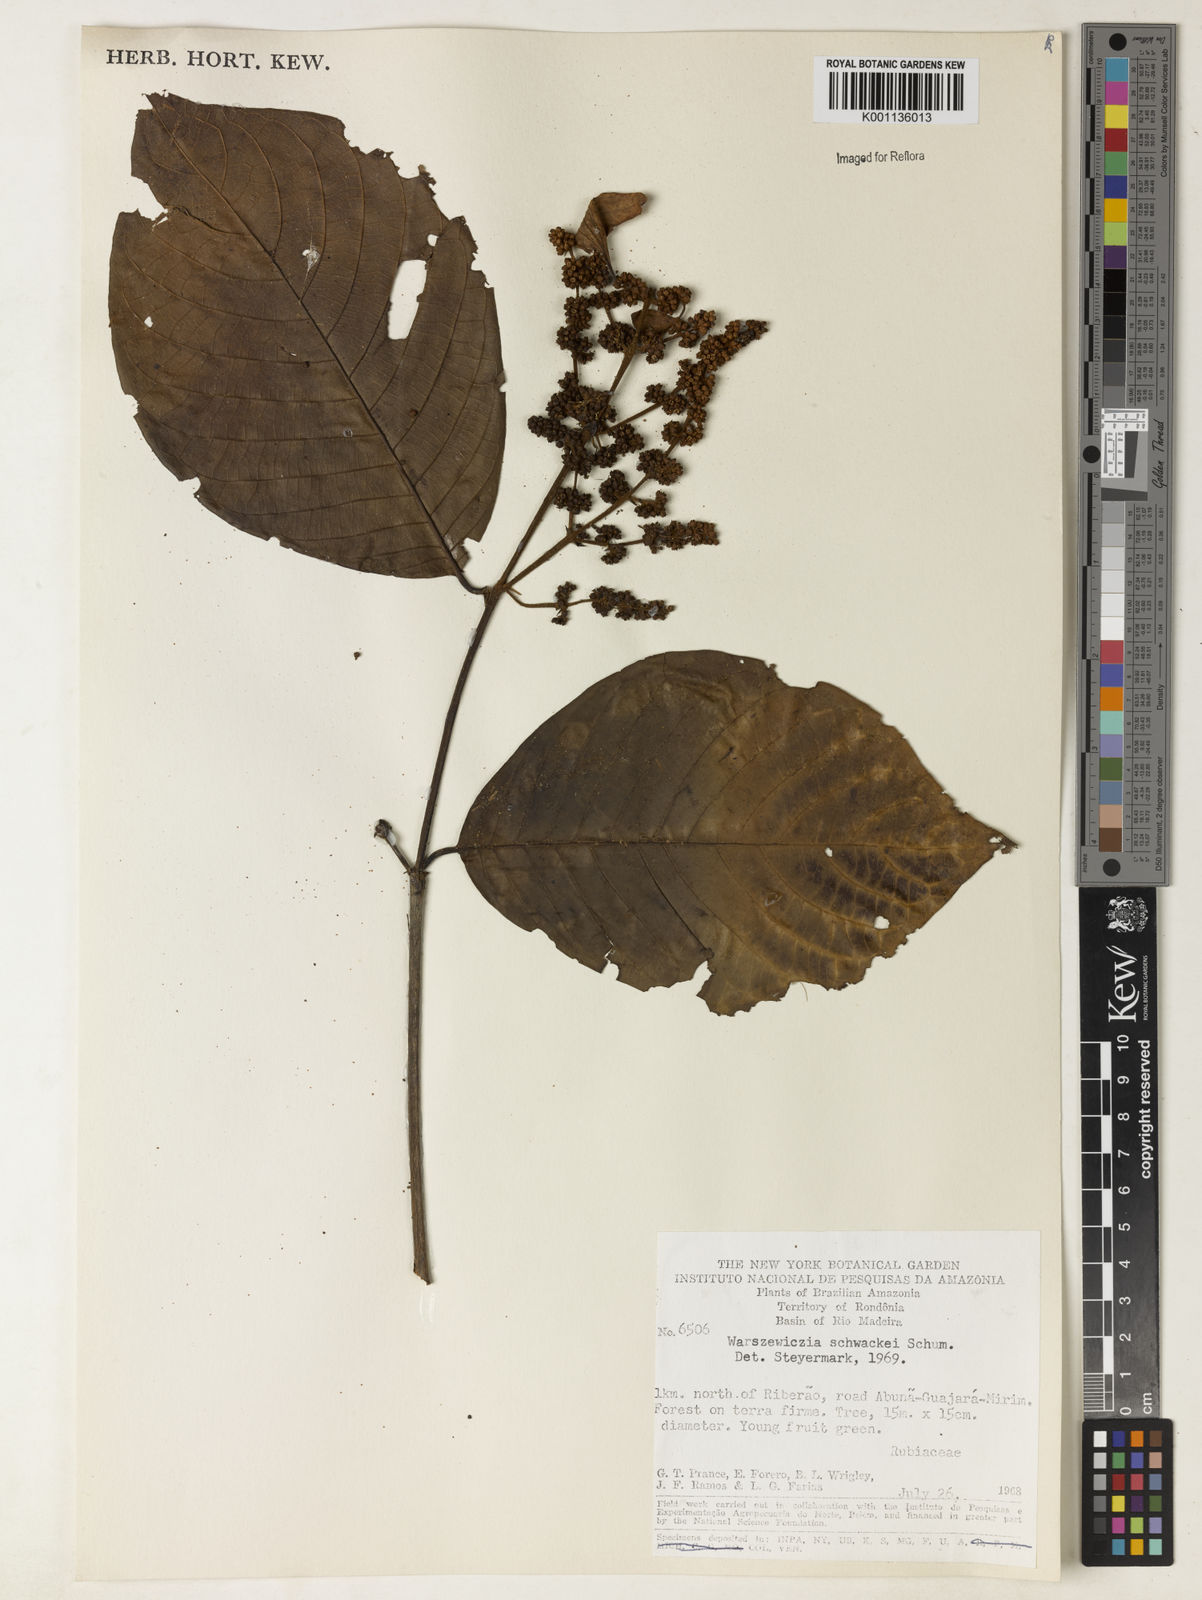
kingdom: Plantae
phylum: Tracheophyta
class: Magnoliopsida
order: Gentianales
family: Rubiaceae
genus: Warszewiczia
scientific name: Warszewiczia schwackei
